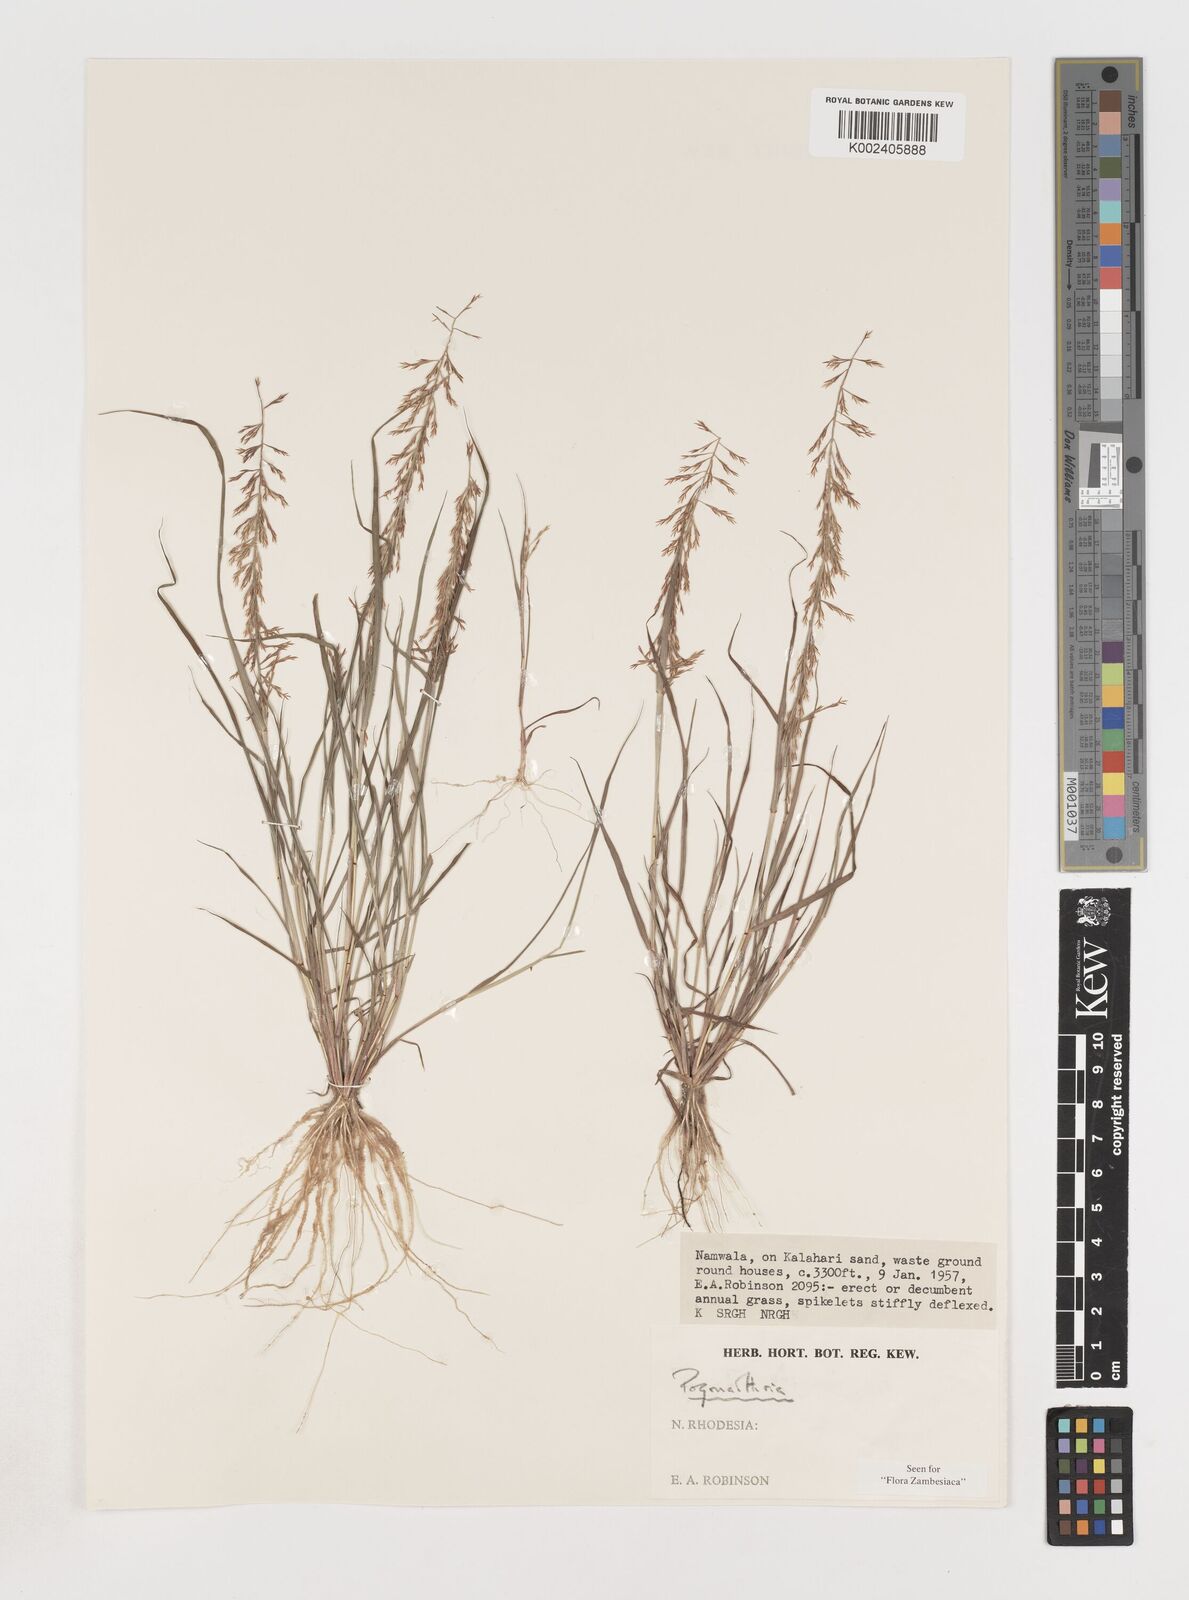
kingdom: Plantae
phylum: Tracheophyta
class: Liliopsida
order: Poales
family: Poaceae
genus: Pogonarthria
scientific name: Pogonarthria refracta
